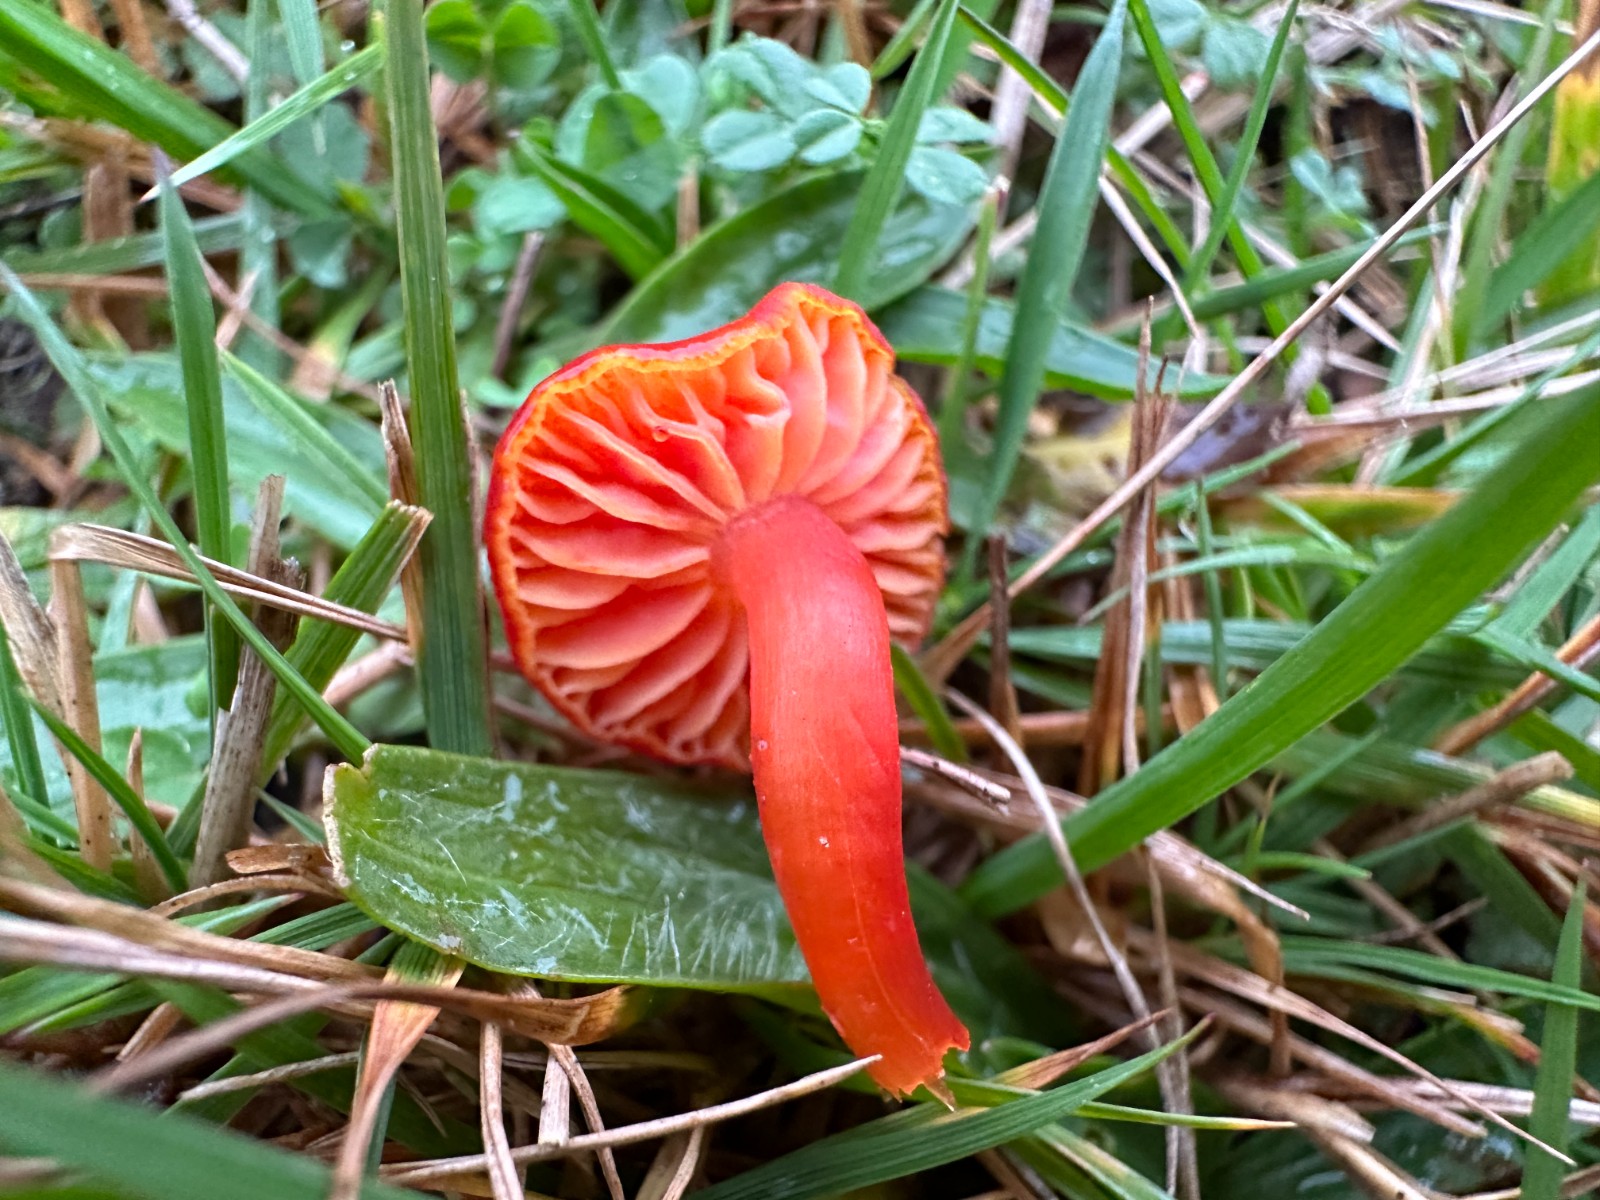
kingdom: Fungi
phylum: Basidiomycota
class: Agaricomycetes
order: Agaricales
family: Hygrophoraceae
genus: Hygrocybe
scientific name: Hygrocybe helobia
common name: hvidløgs-vokshat
